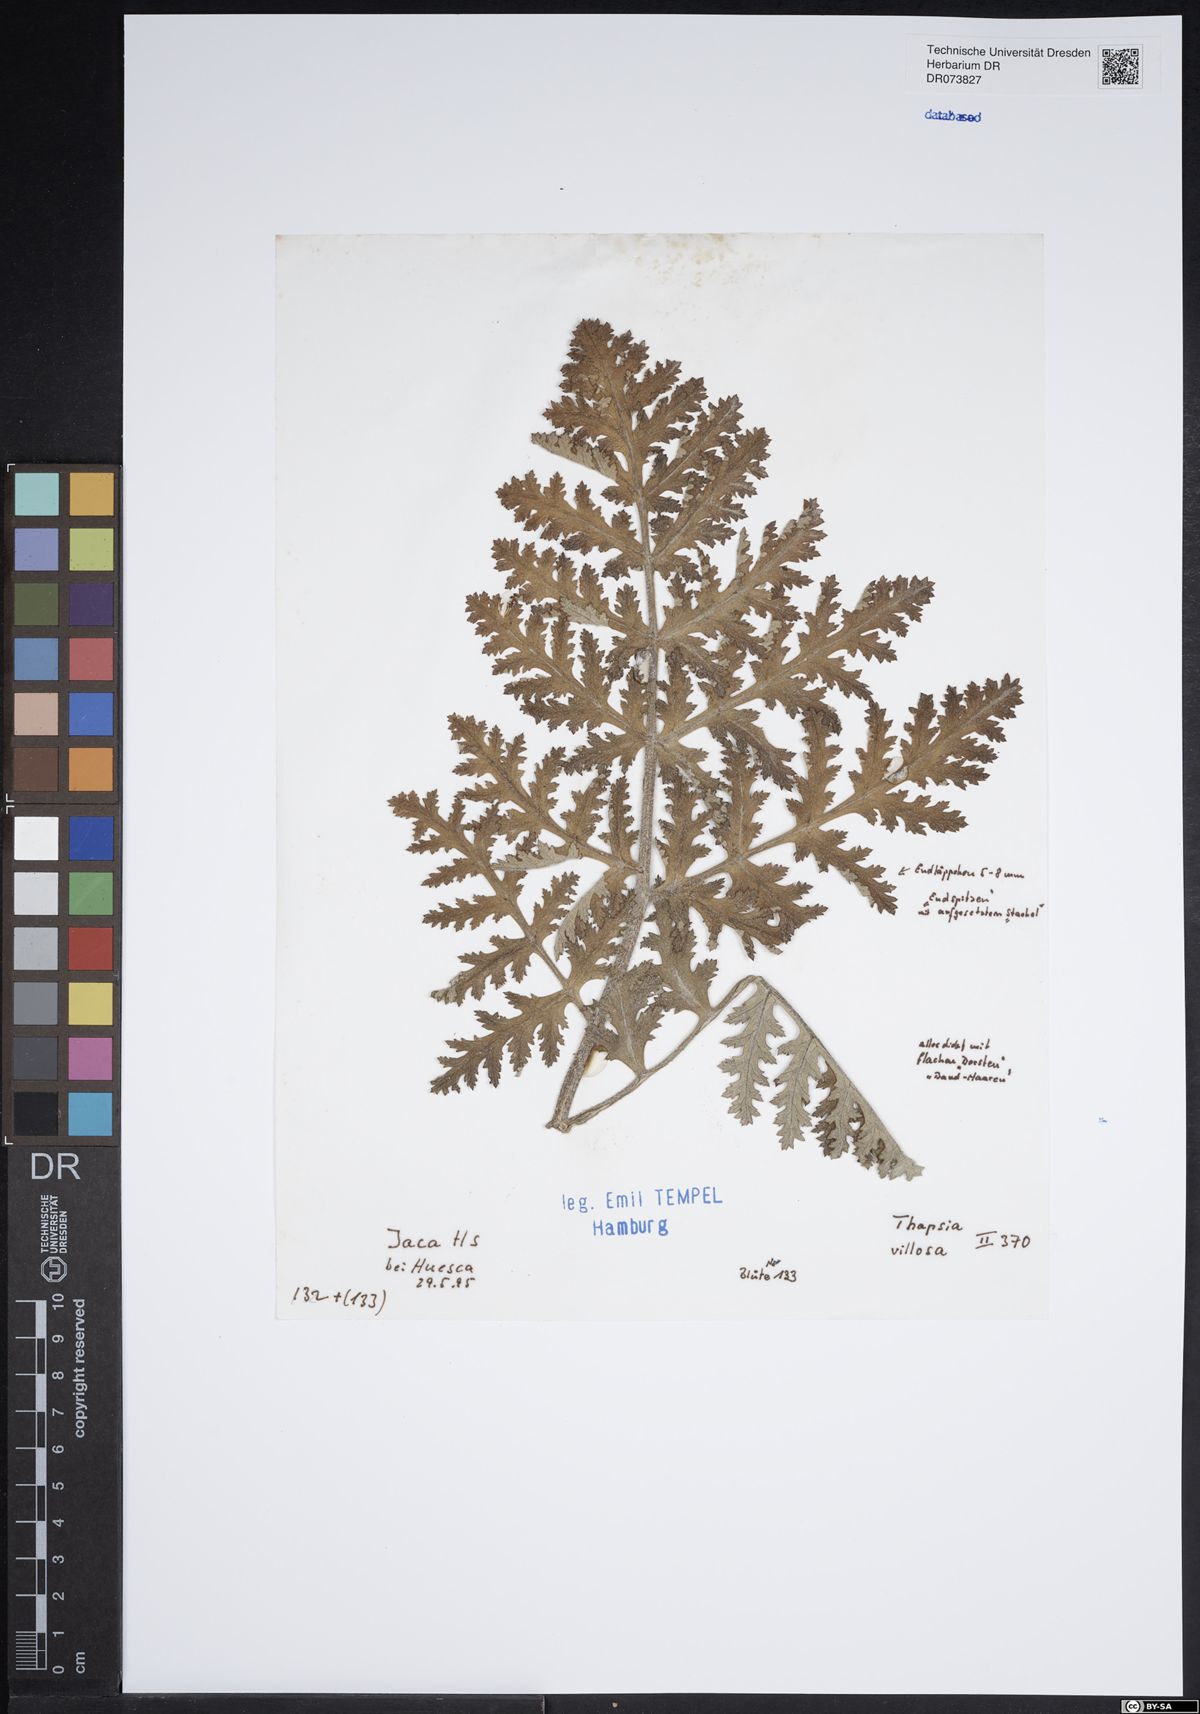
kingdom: Plantae
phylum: Tracheophyta
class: Magnoliopsida
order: Apiales
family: Apiaceae
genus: Thapsia
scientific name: Thapsia villosa
